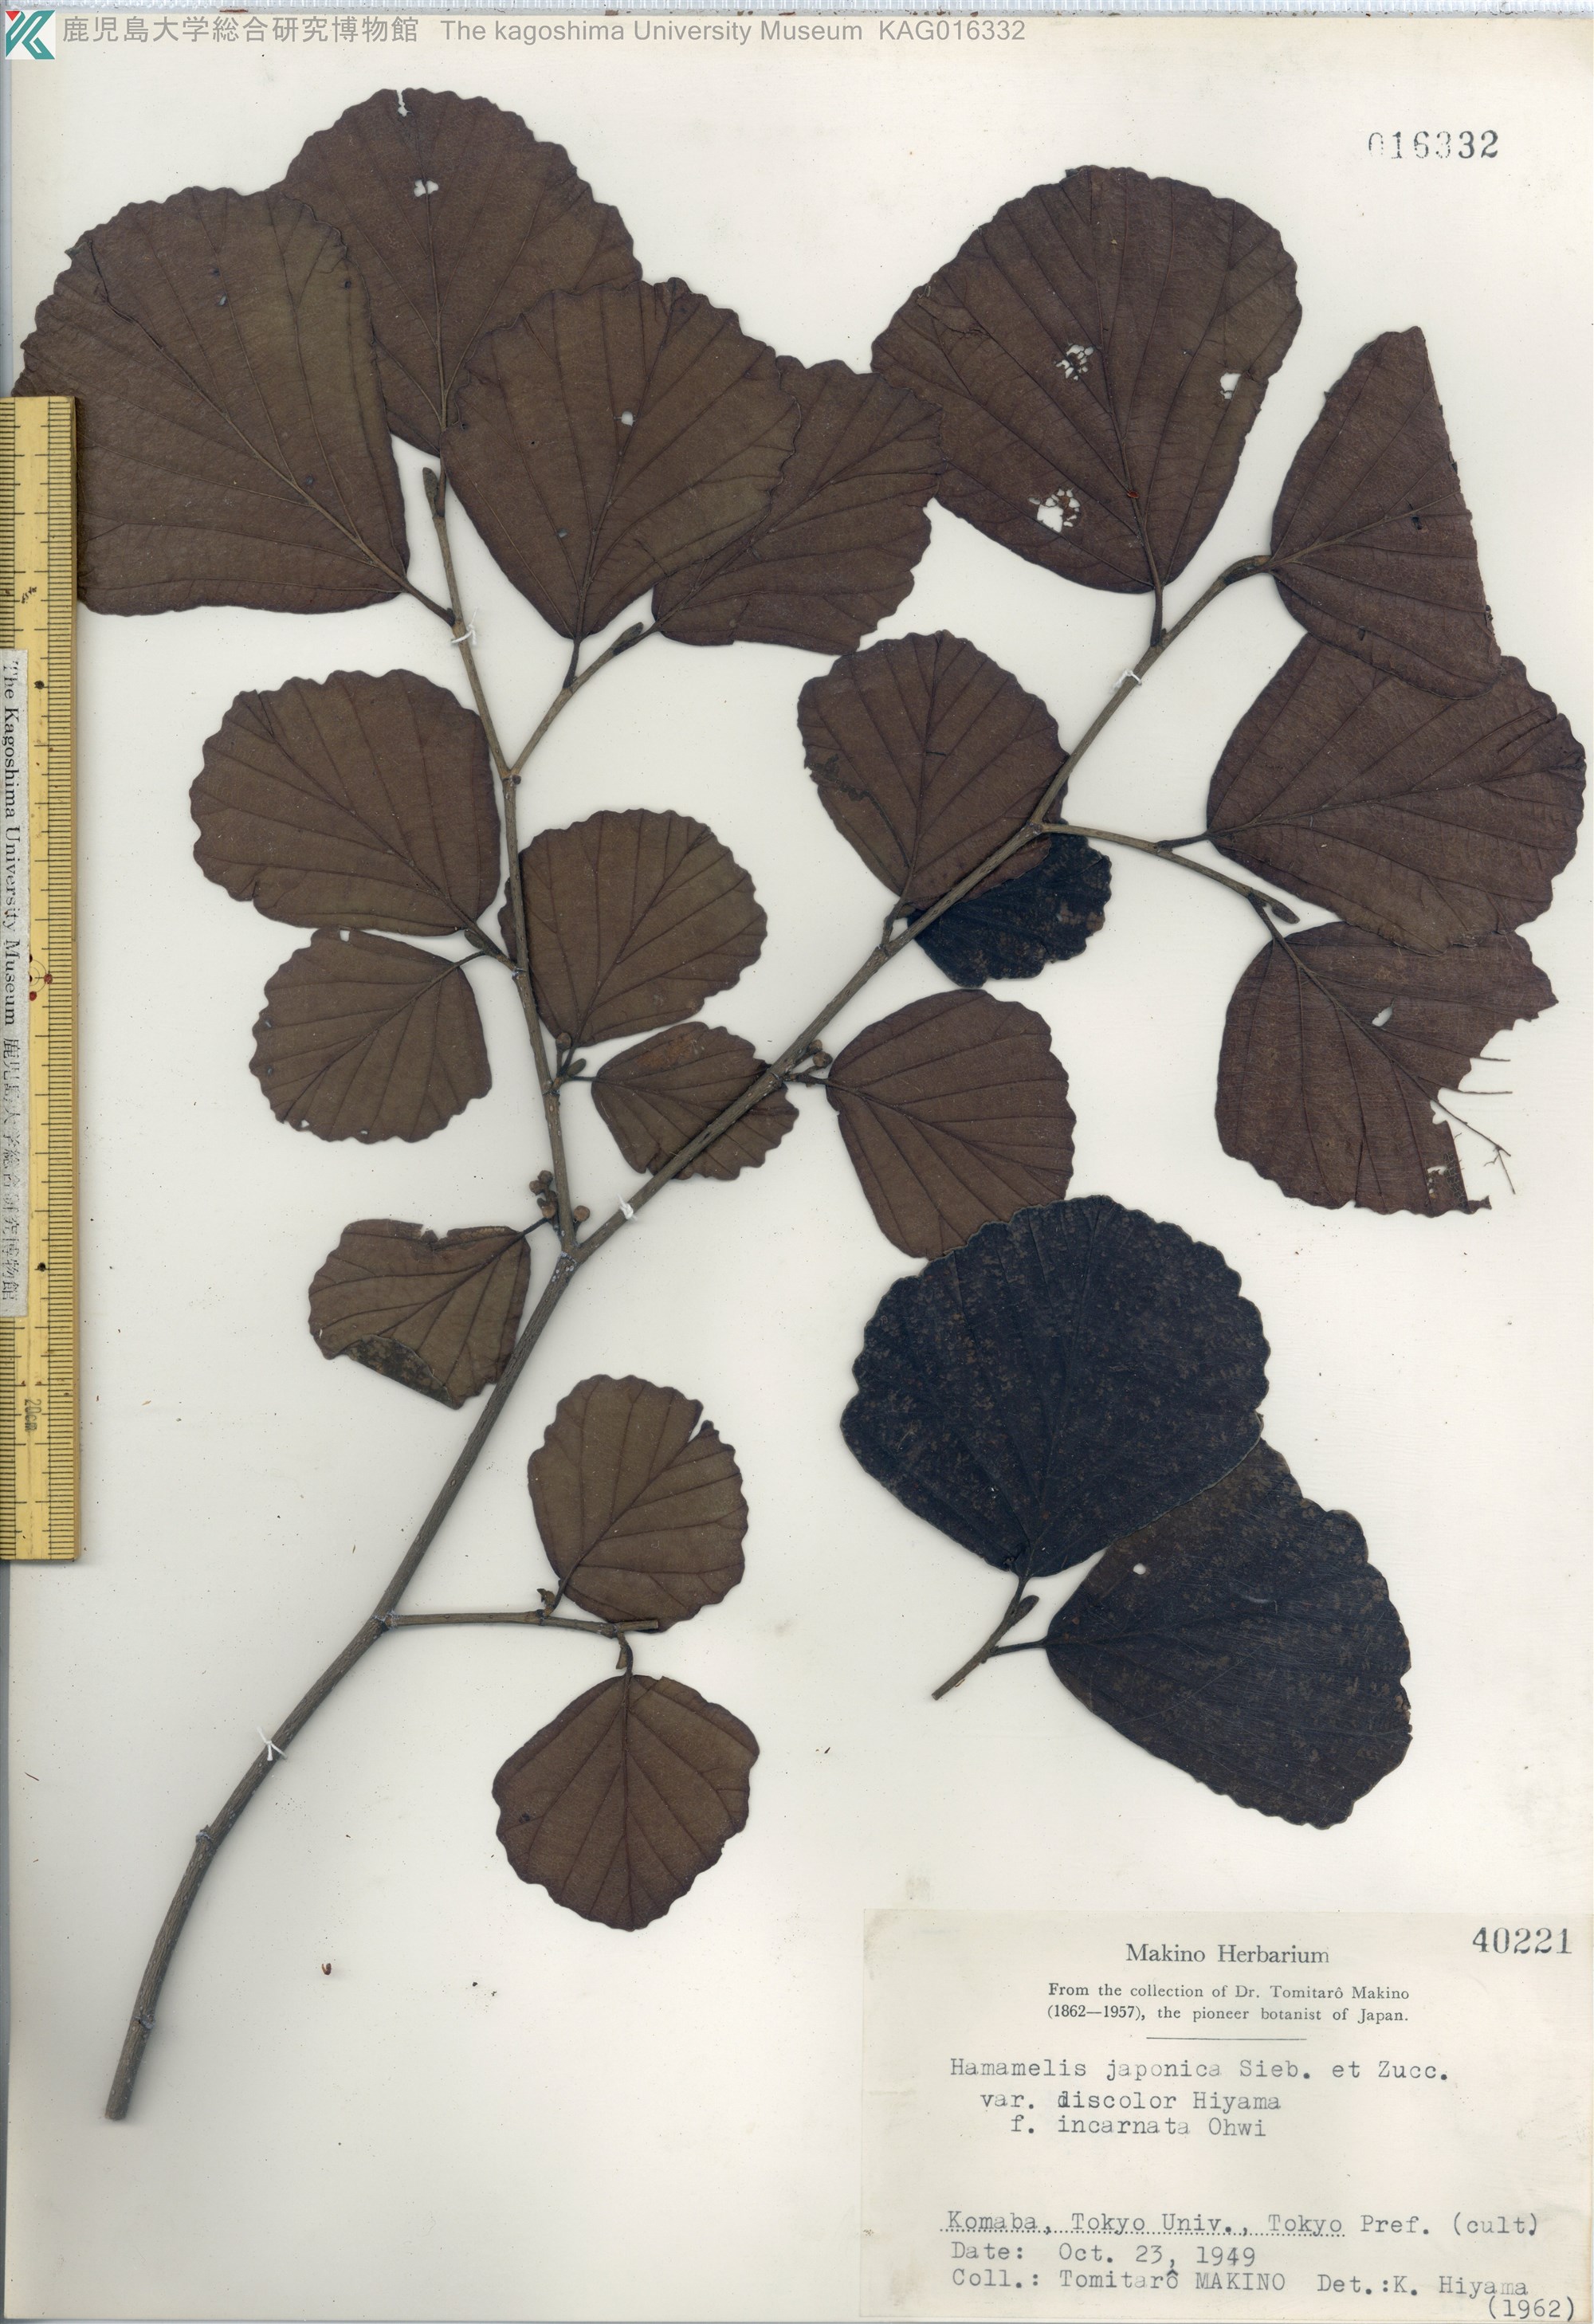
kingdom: Plantae
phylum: Tracheophyta
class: Magnoliopsida
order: Saxifragales
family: Hamamelidaceae
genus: Hamamelis
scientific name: Hamamelis japonica
